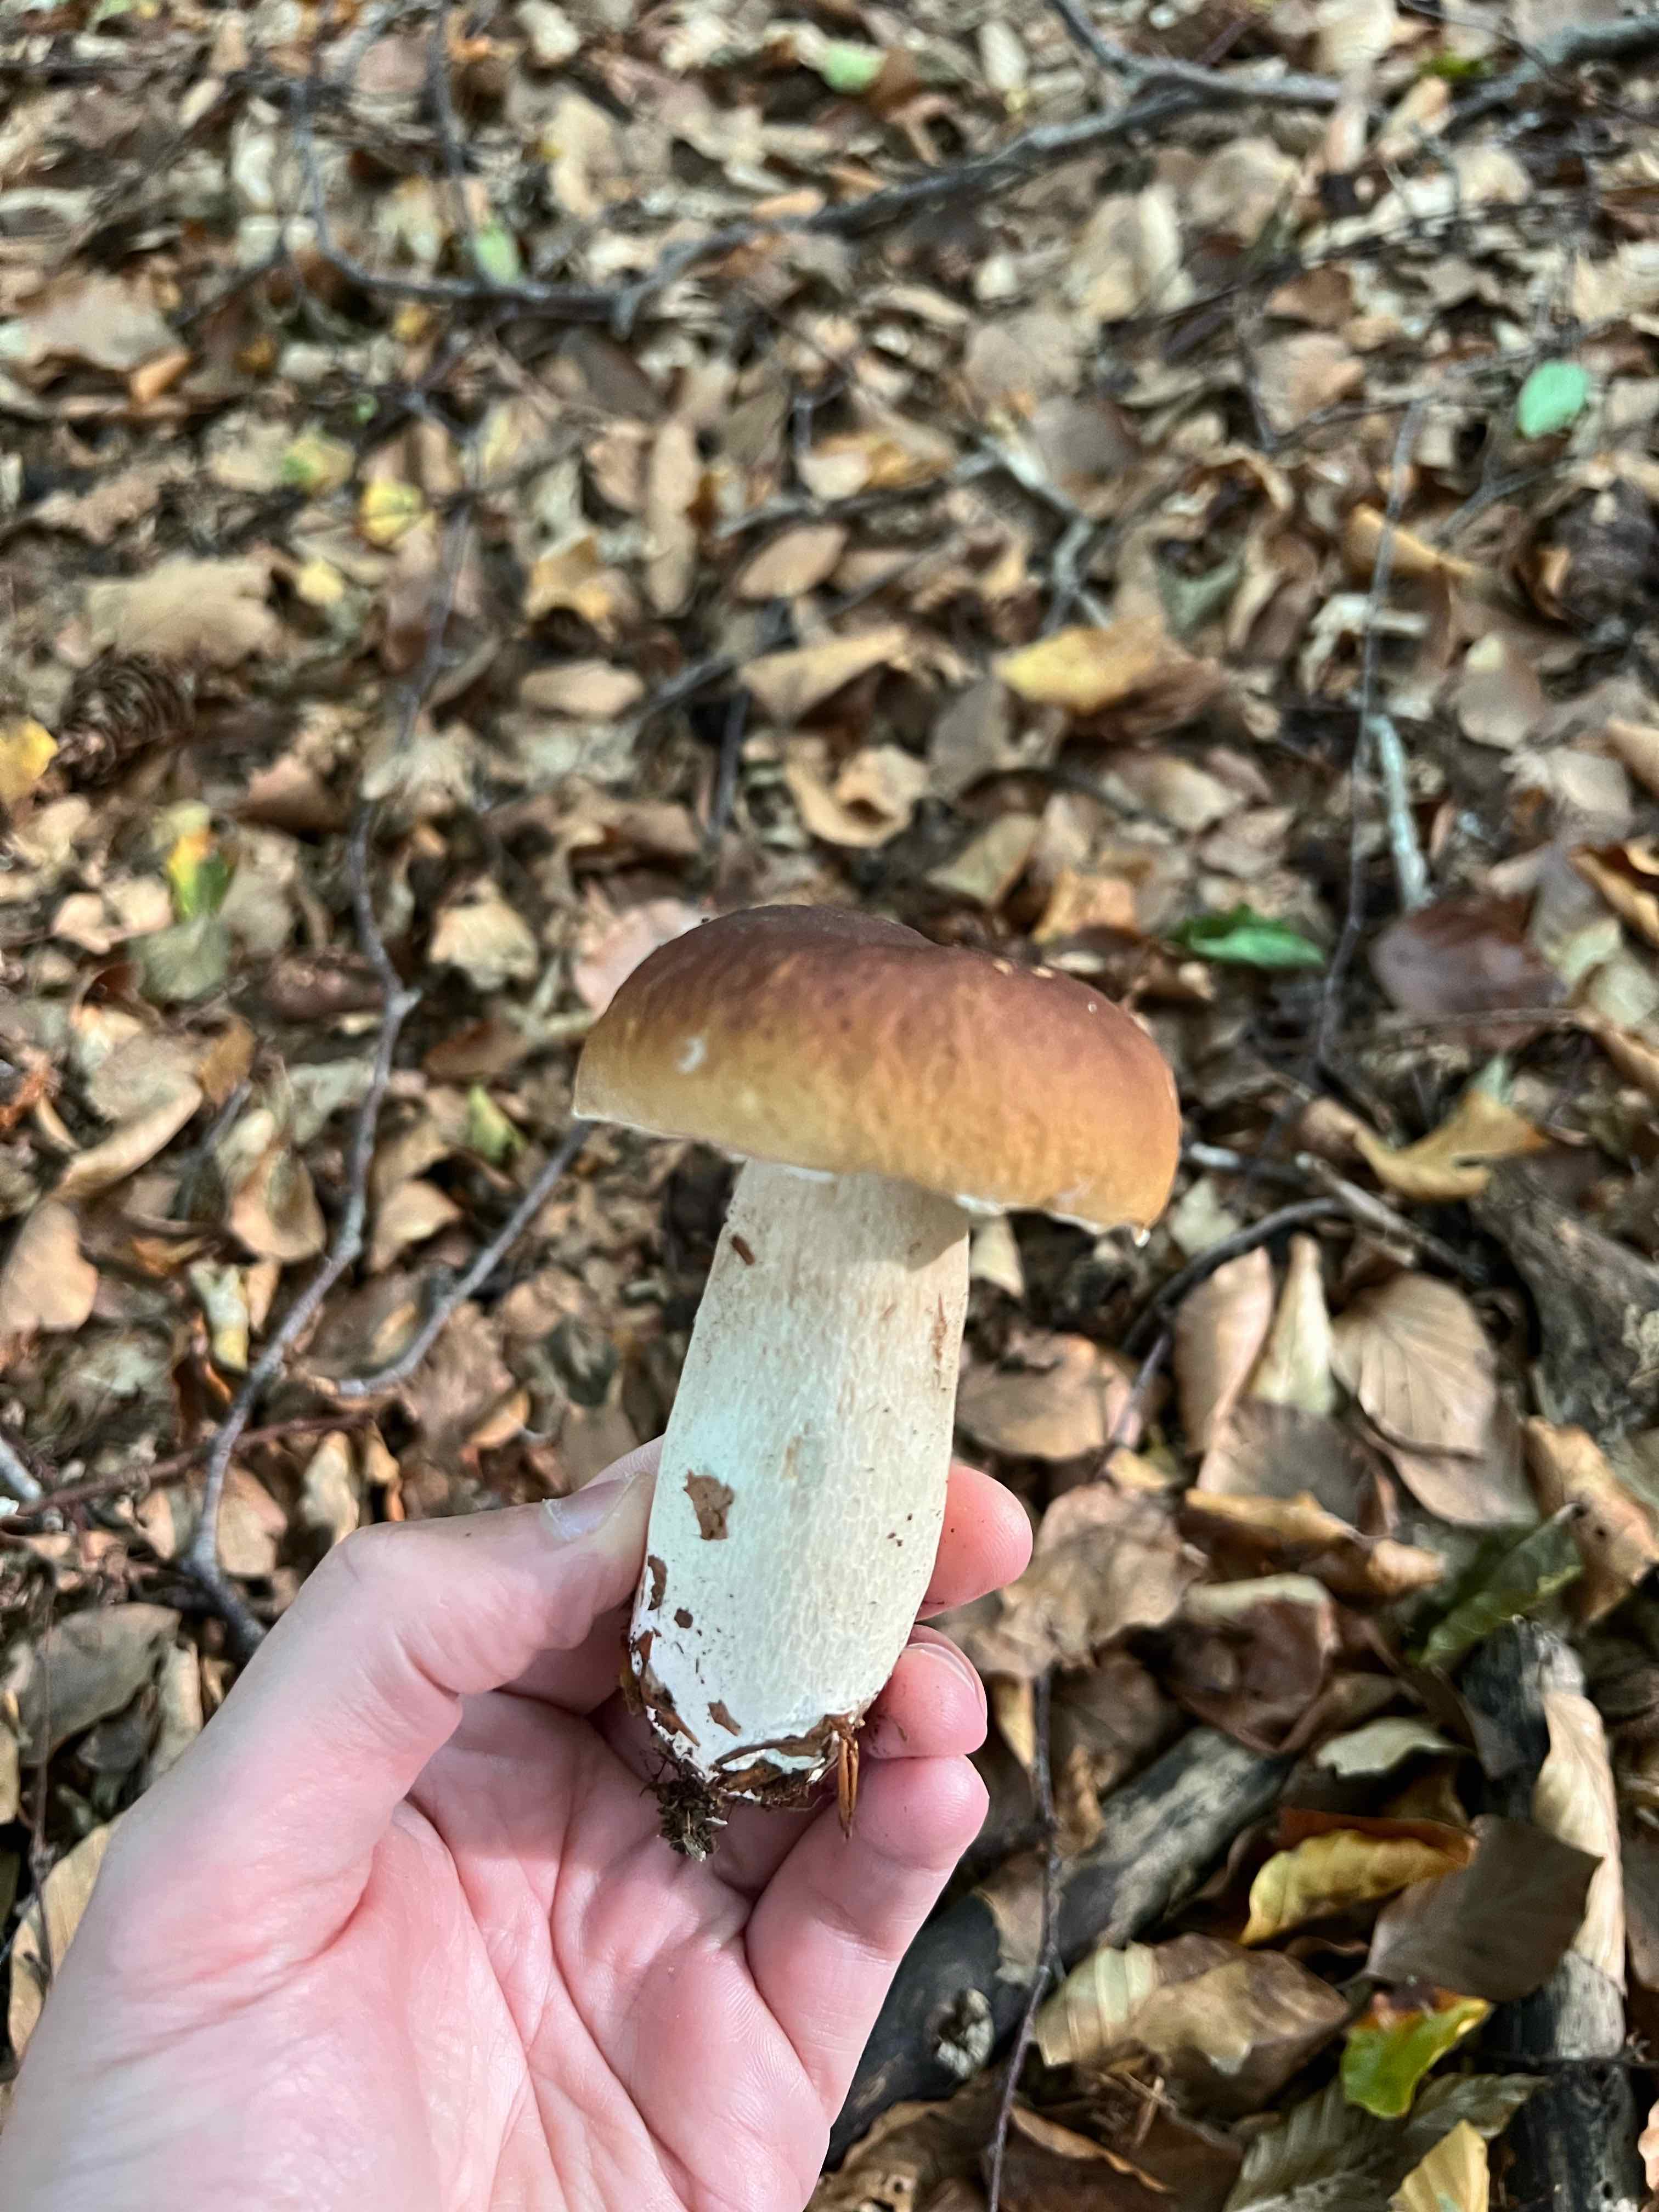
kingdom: Fungi
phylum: Basidiomycota
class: Agaricomycetes
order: Boletales
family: Boletaceae
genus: Boletus
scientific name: Boletus edulis
